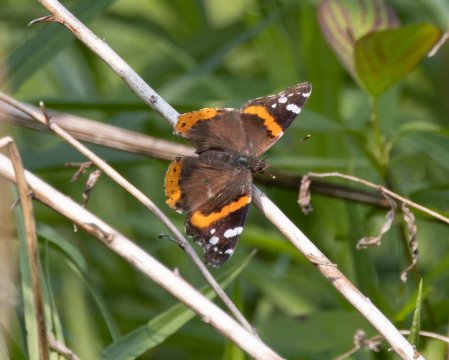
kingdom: Animalia
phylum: Arthropoda
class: Insecta
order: Lepidoptera
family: Nymphalidae
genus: Vanessa
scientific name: Vanessa atalanta
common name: Red Admiral
